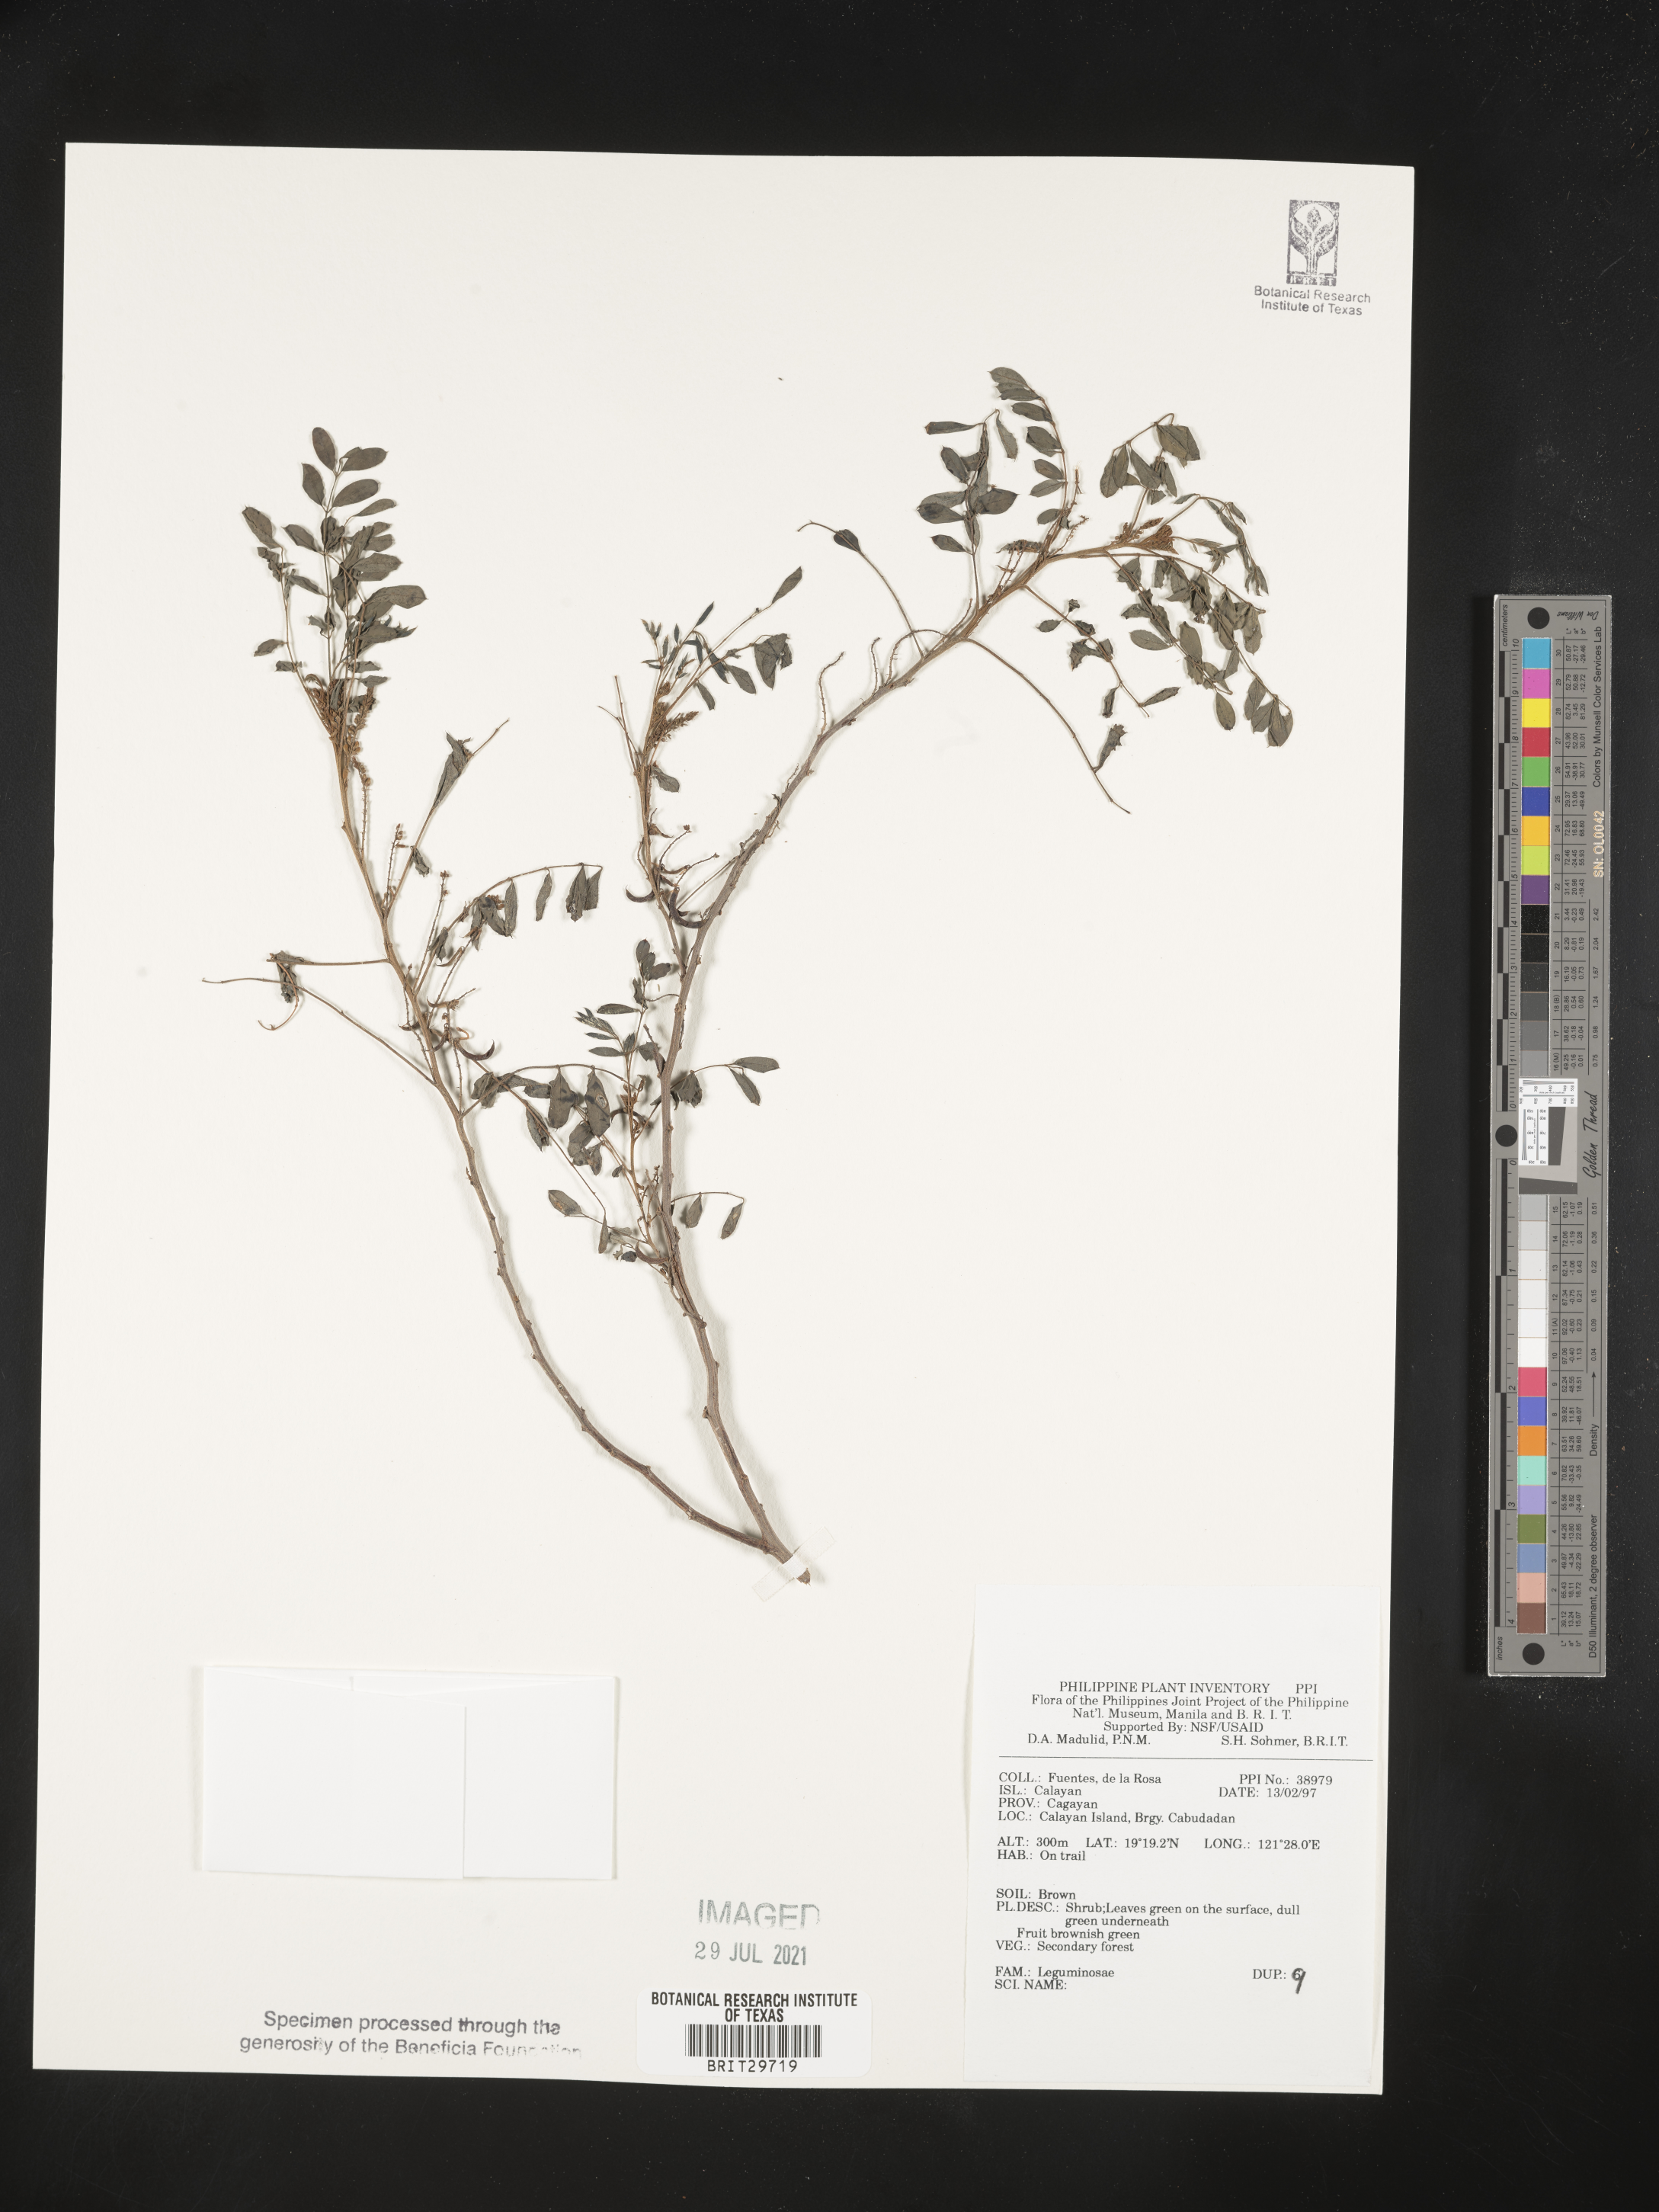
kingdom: Plantae
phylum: Tracheophyta
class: Magnoliopsida
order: Fabales
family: Fabaceae
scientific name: Fabaceae
